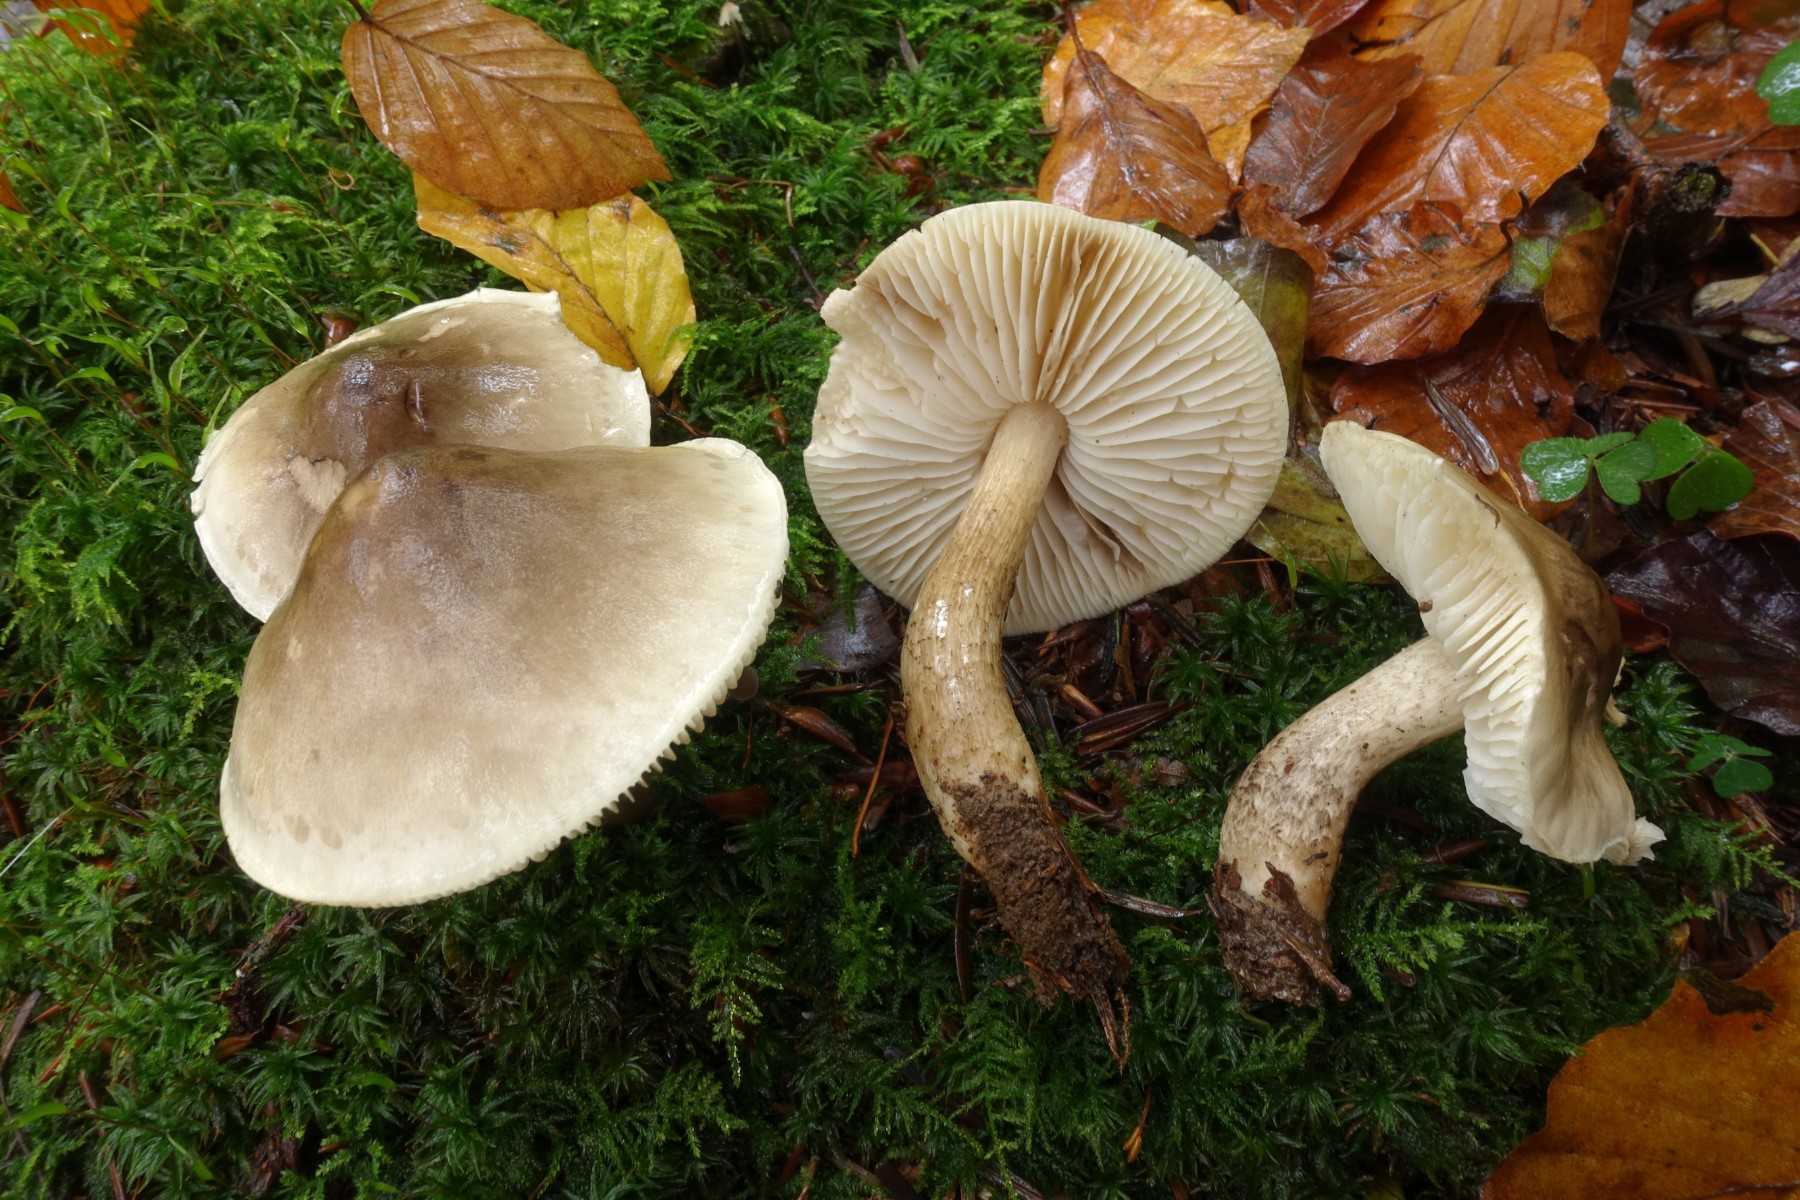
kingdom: Fungi
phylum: Basidiomycota
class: Agaricomycetes
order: Agaricales
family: Tricholomataceae
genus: Tricholoma
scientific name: Tricholoma saponaceum
